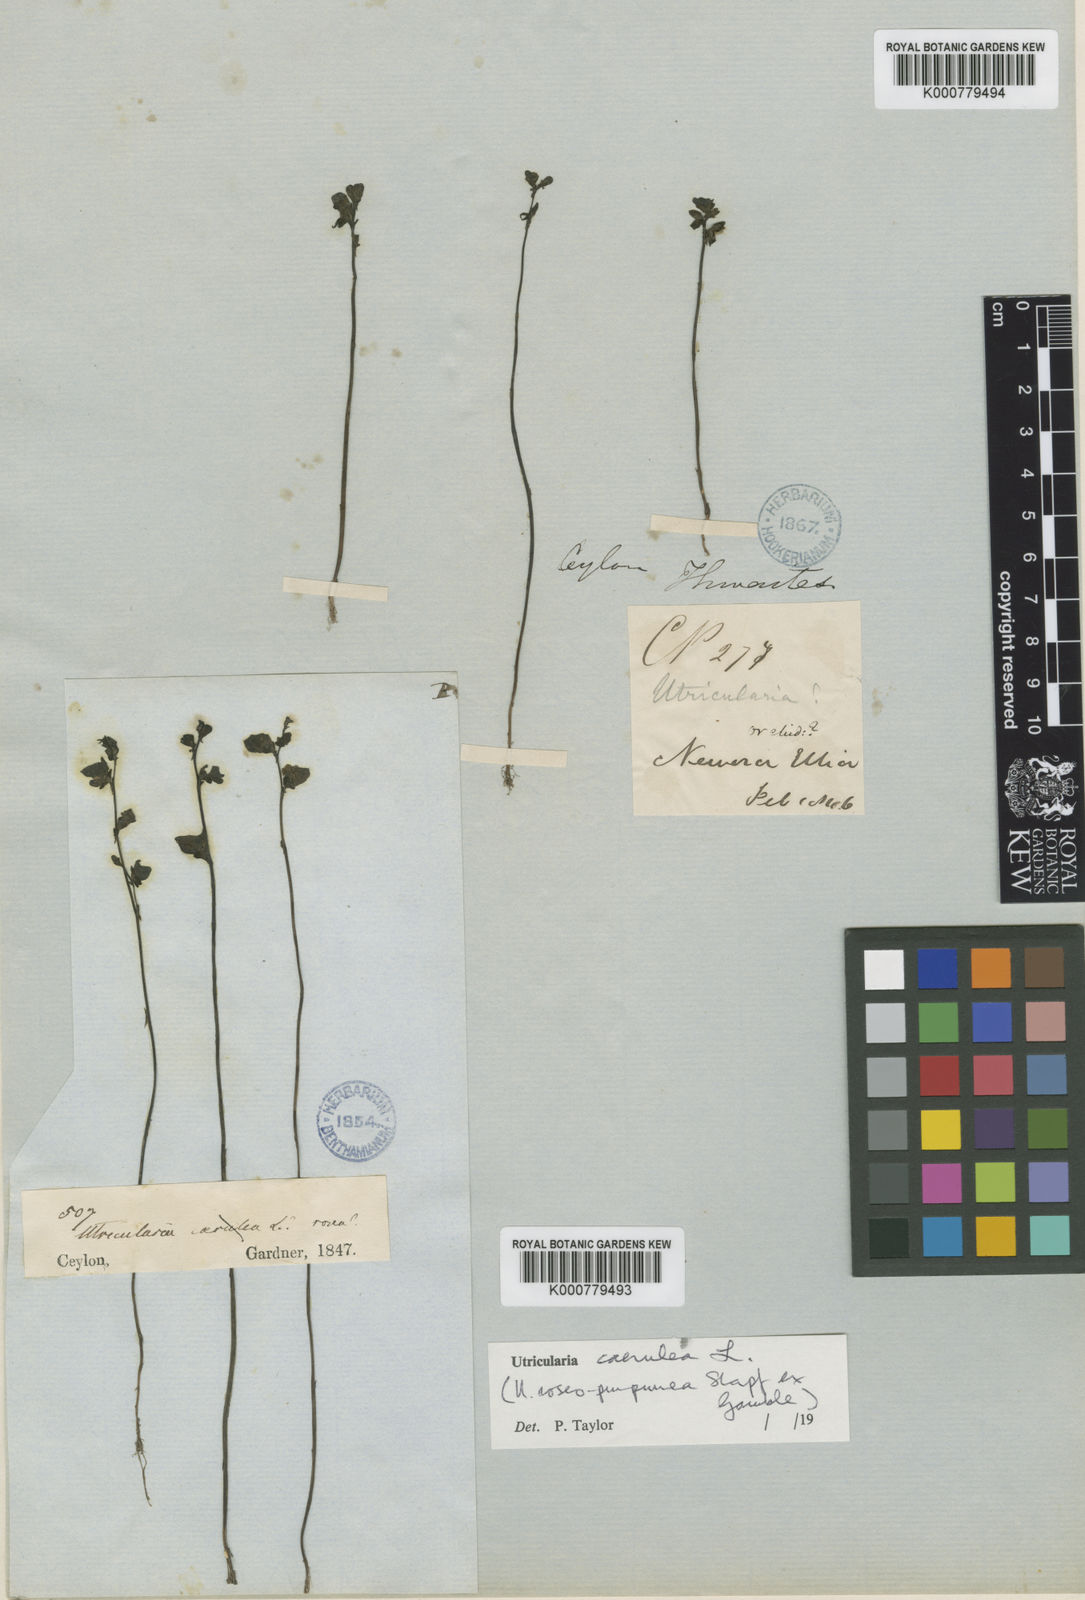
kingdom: Plantae
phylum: Tracheophyta
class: Magnoliopsida
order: Lamiales
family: Lentibulariaceae
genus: Utricularia
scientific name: Utricularia caerulea
